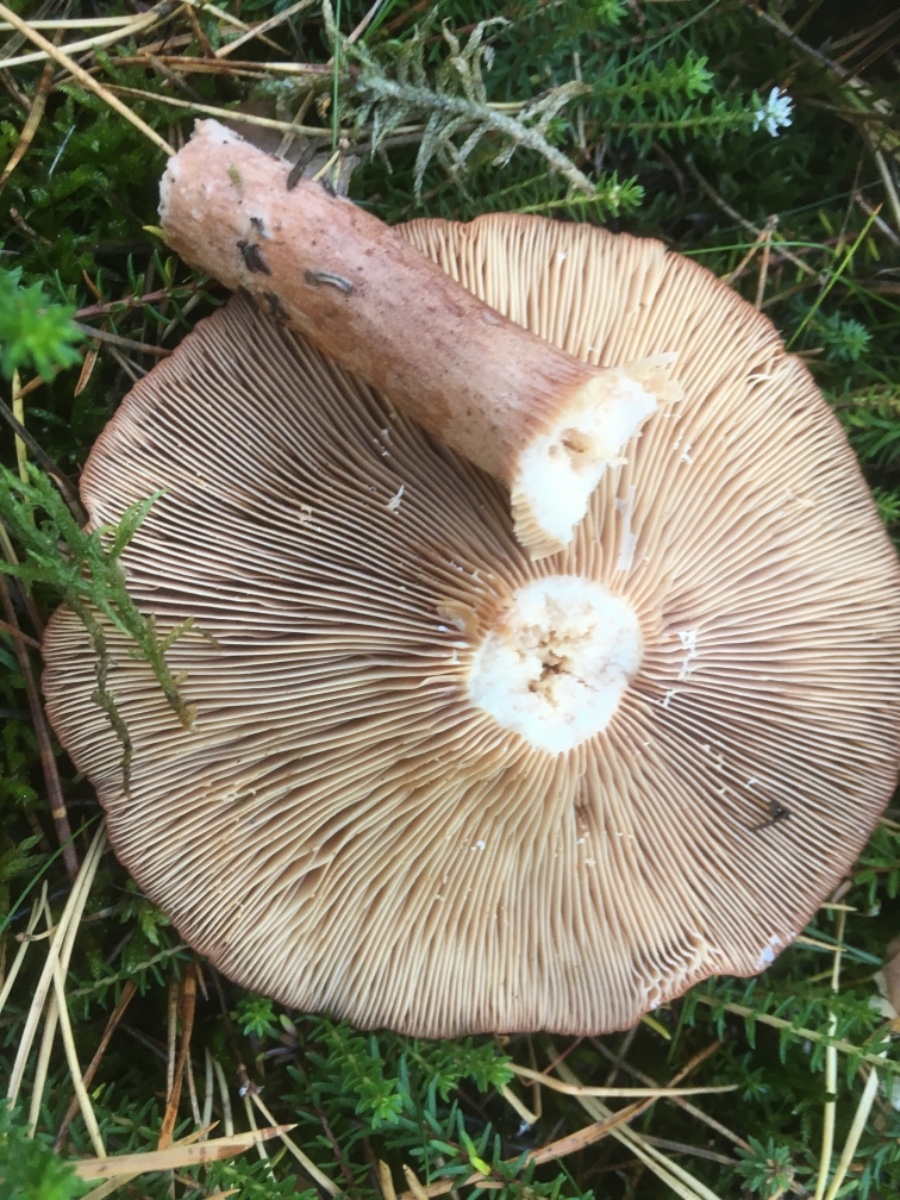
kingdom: Fungi
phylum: Basidiomycota
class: Agaricomycetes
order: Russulales
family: Russulaceae
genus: Lactarius
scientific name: Lactarius rufus
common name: rødbrun mælkehat
